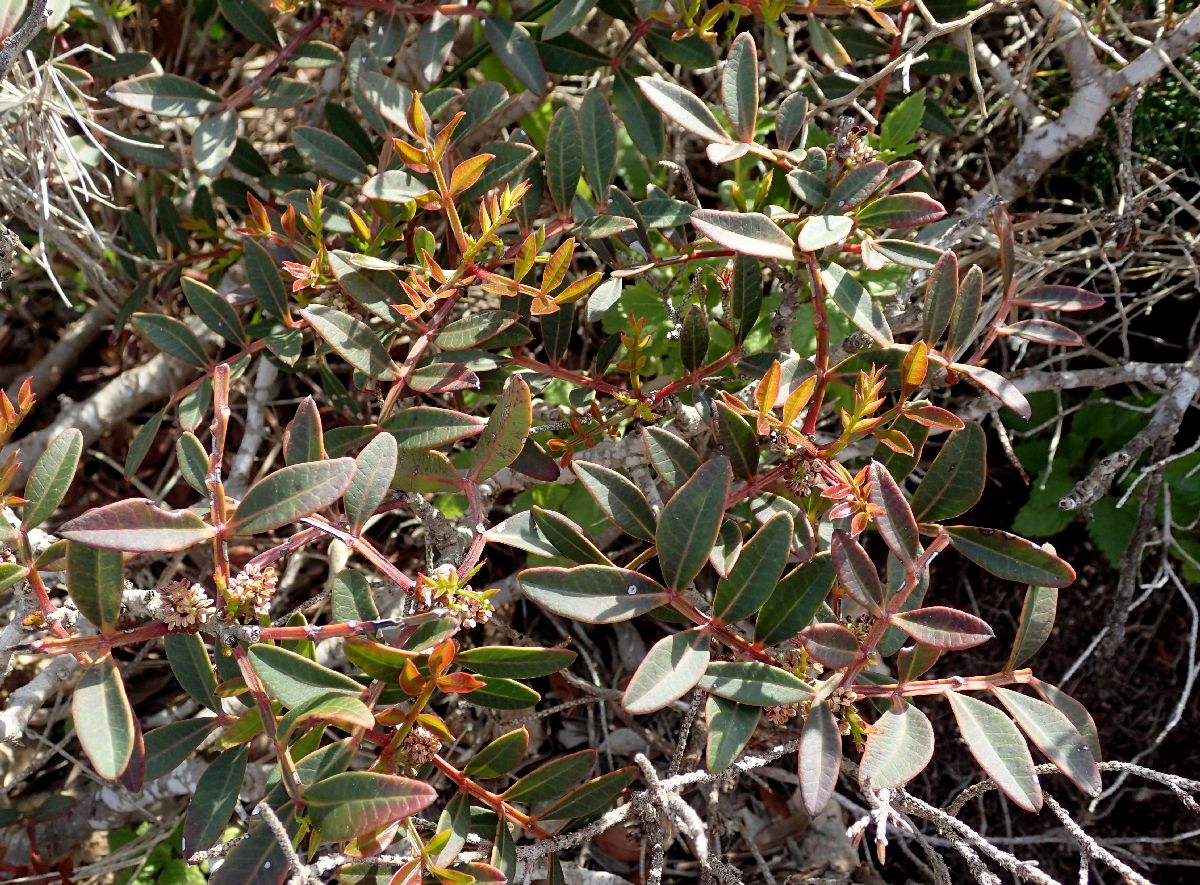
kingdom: Plantae
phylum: Tracheophyta
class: Magnoliopsida
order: Sapindales
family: Anacardiaceae
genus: Pistacia
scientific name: Pistacia lentiscus
